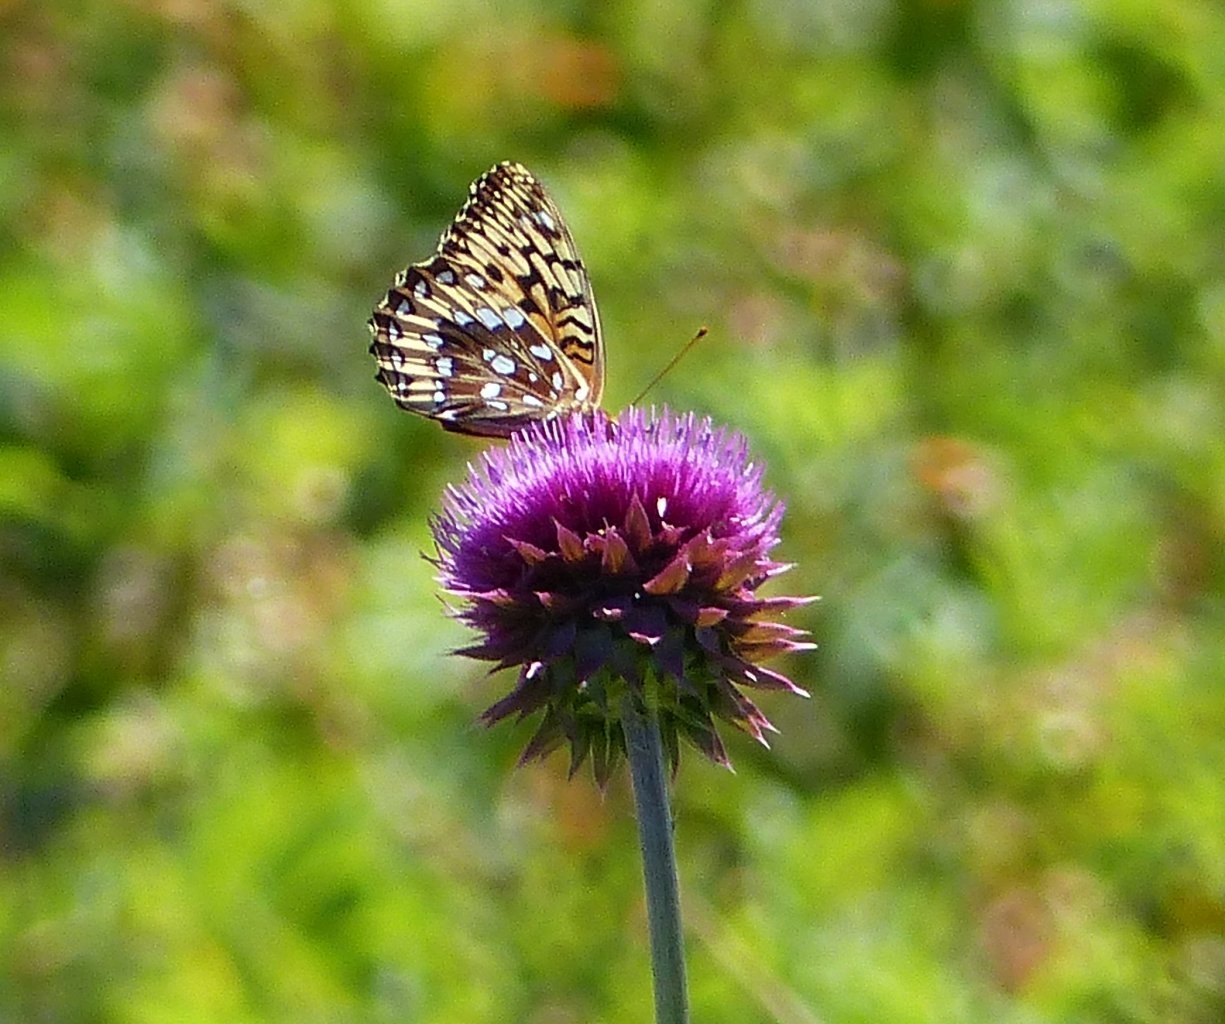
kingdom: Animalia
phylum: Arthropoda
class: Insecta
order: Lepidoptera
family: Nymphalidae
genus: Speyeria
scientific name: Speyeria atlantis
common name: Atlantis Fritillary
